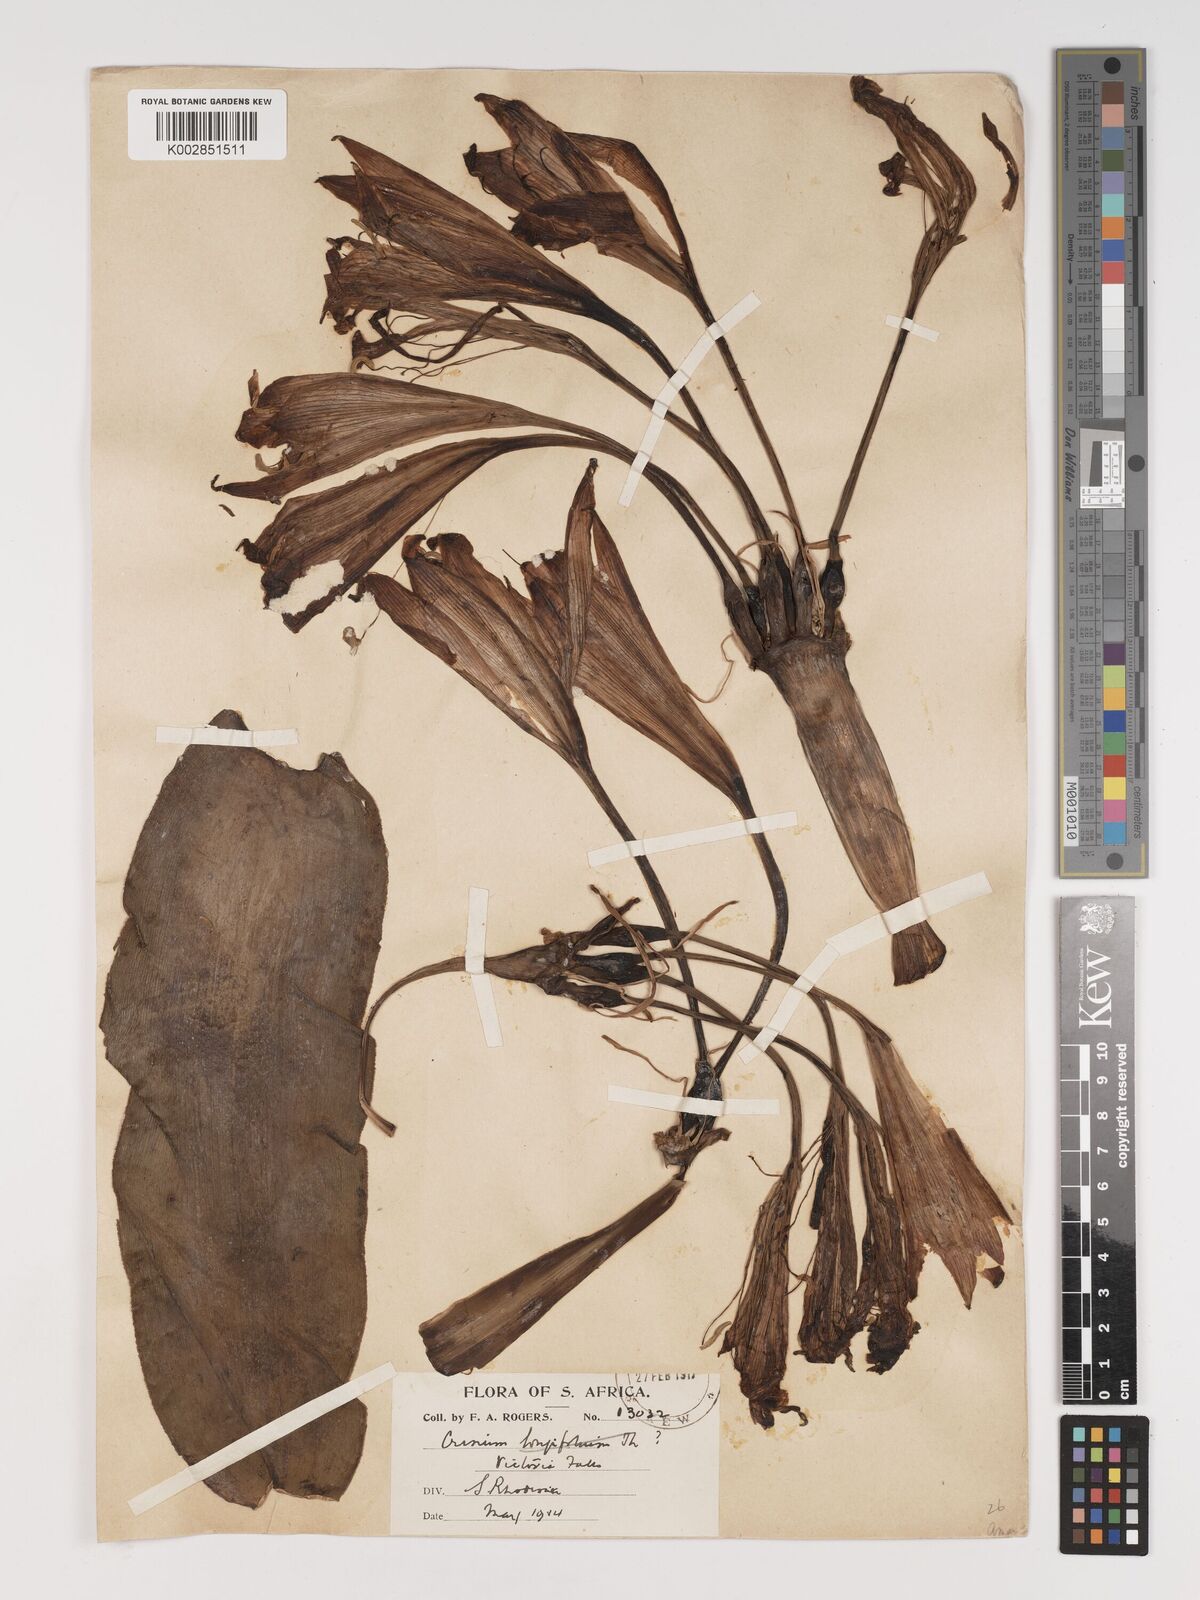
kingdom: Plantae
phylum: Tracheophyta
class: Liliopsida
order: Asparagales
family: Amaryllidaceae
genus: Crinum
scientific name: Crinum
